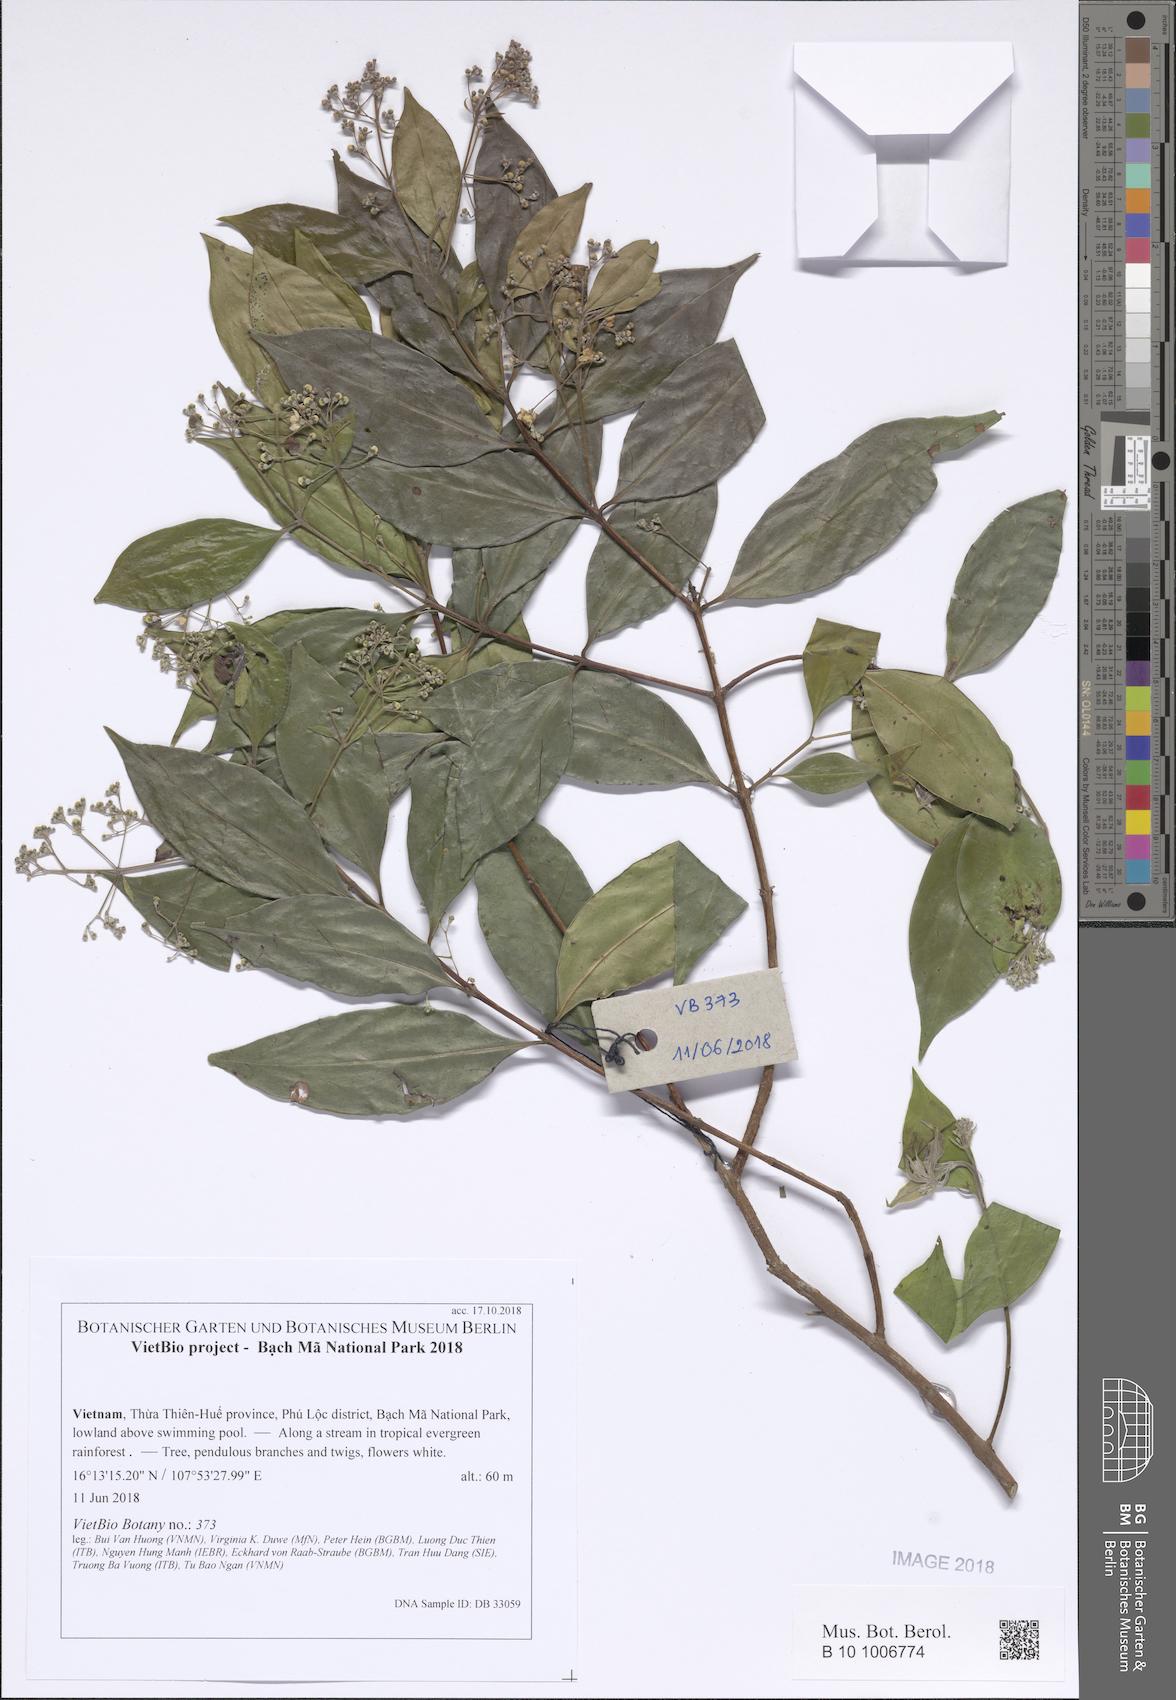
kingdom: Plantae
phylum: Tracheophyta
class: Magnoliopsida
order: Myrtales
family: Myrtaceae
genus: Decaspermum
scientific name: Decaspermum parviflorum
